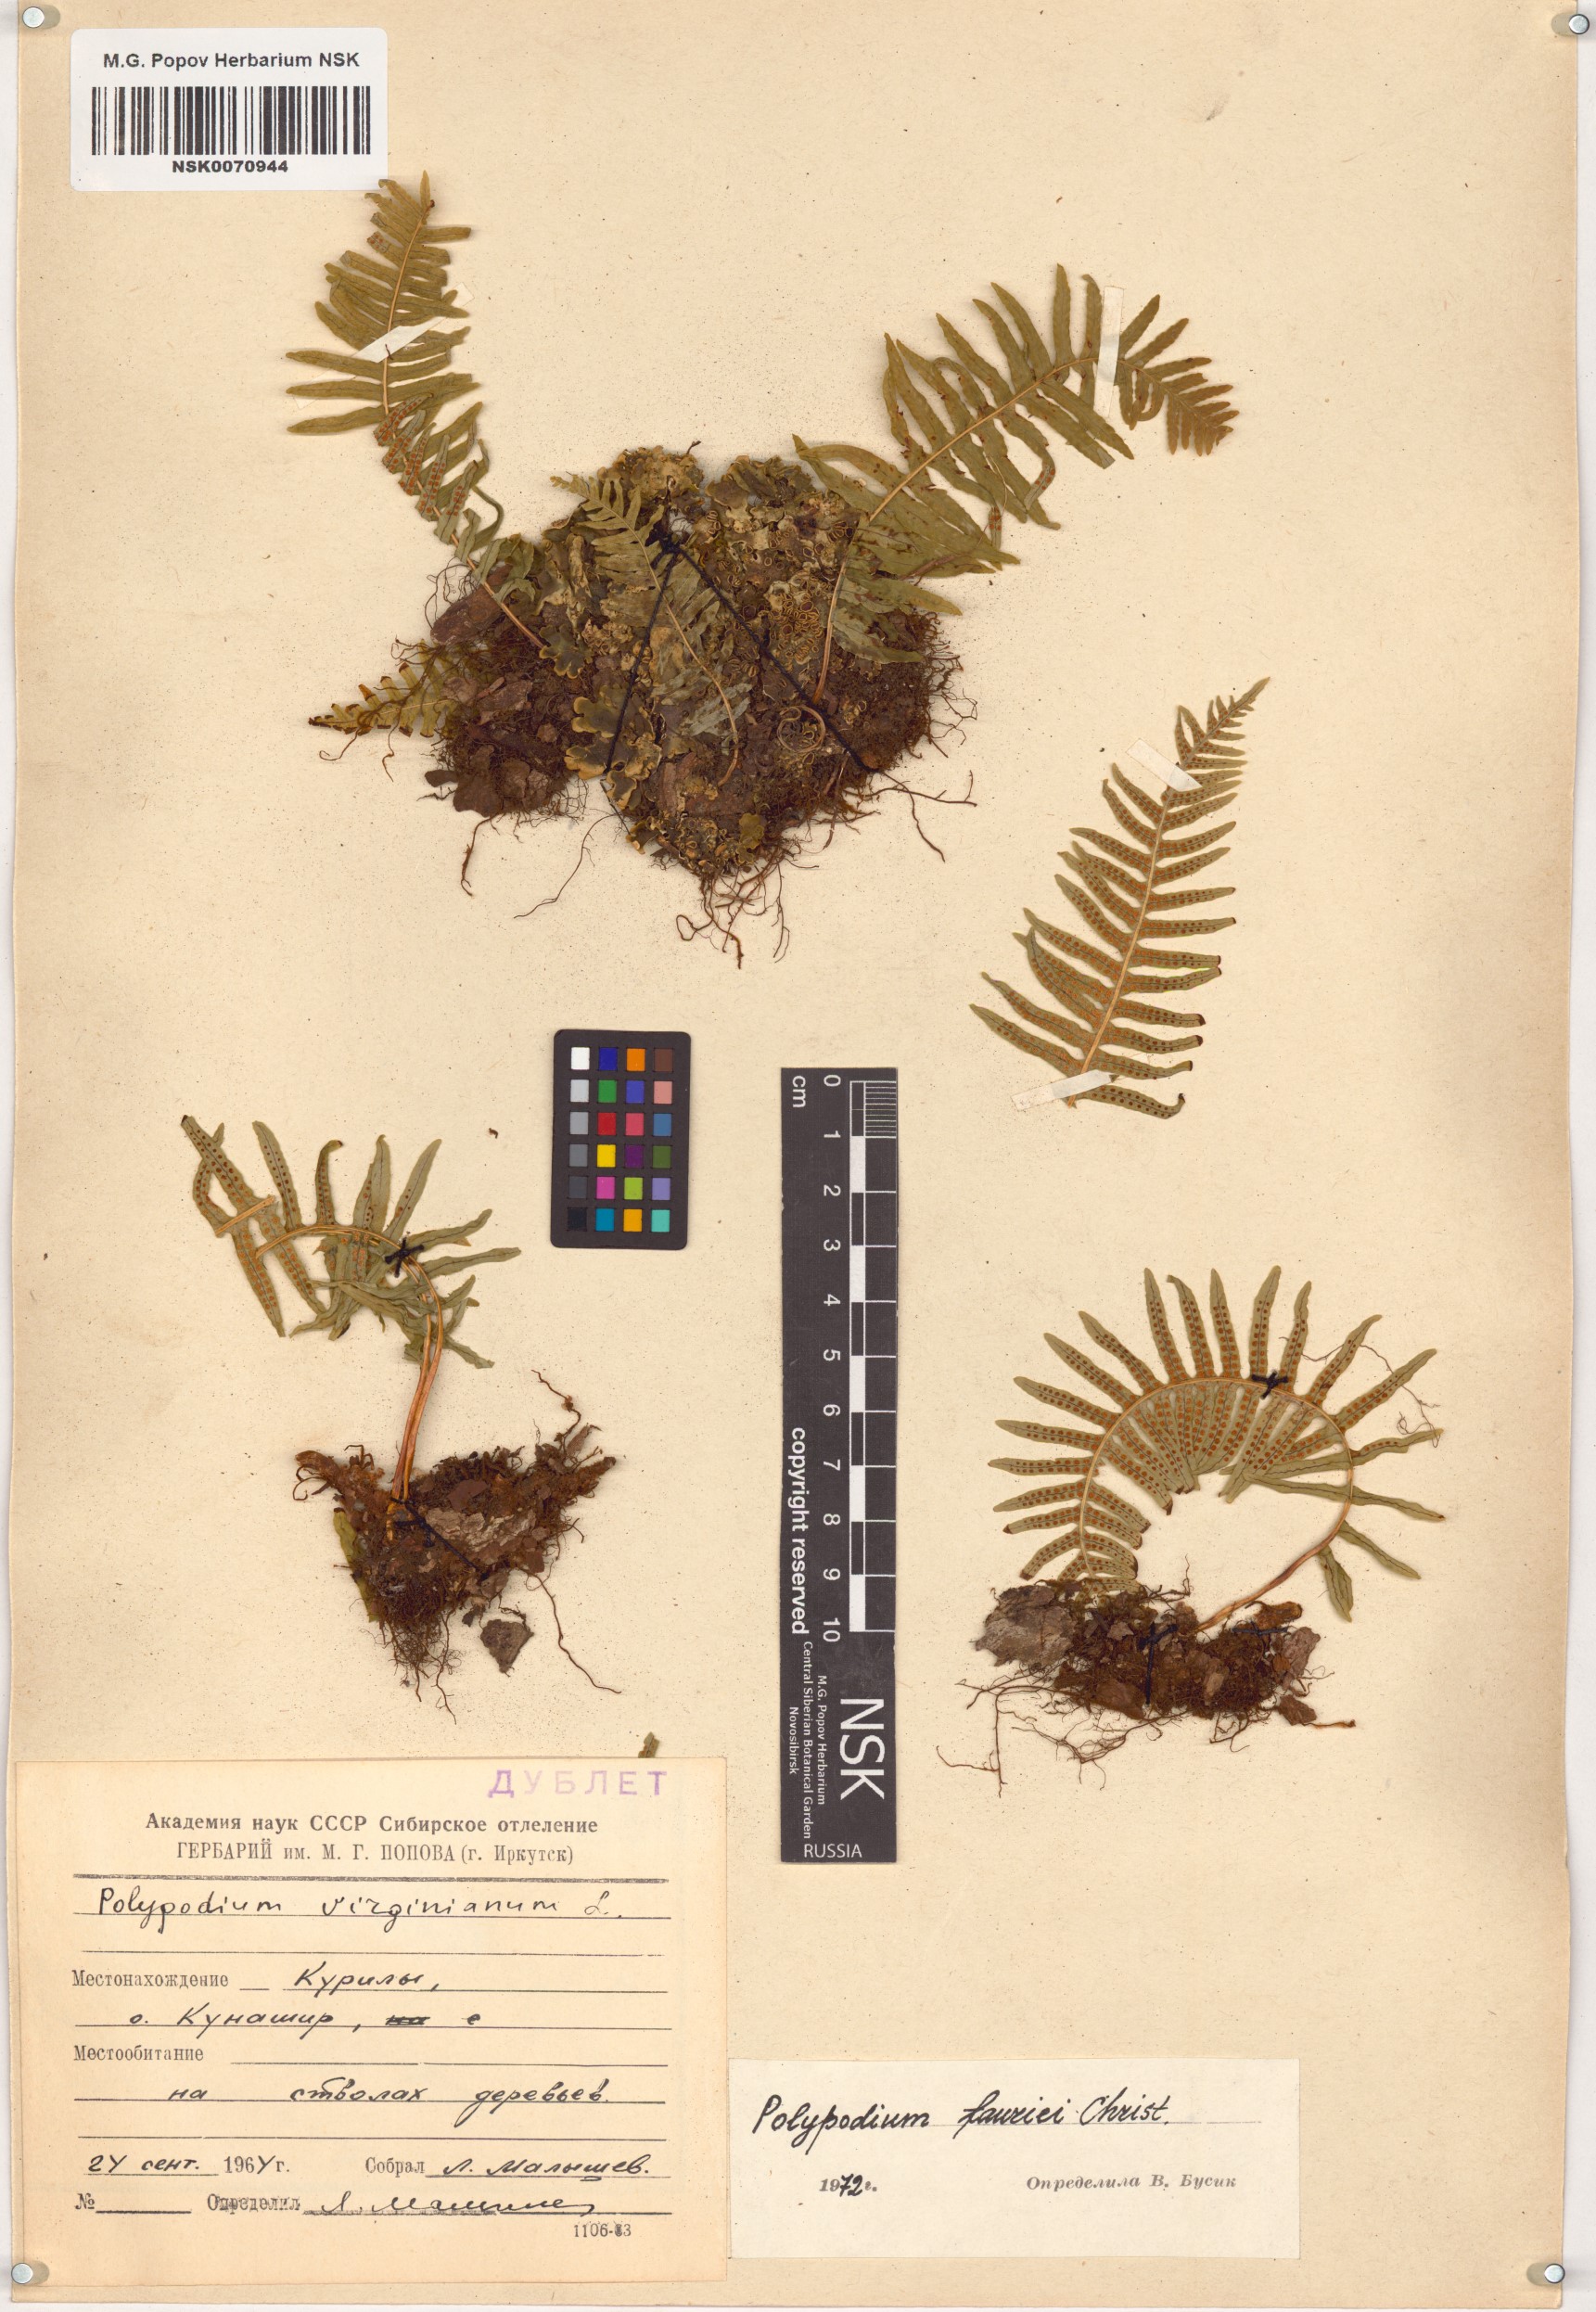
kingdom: Plantae
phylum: Tracheophyta
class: Polypodiopsida
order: Polypodiales
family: Polypodiaceae
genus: Polypodium
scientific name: Polypodium virginianum
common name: American wall fern
